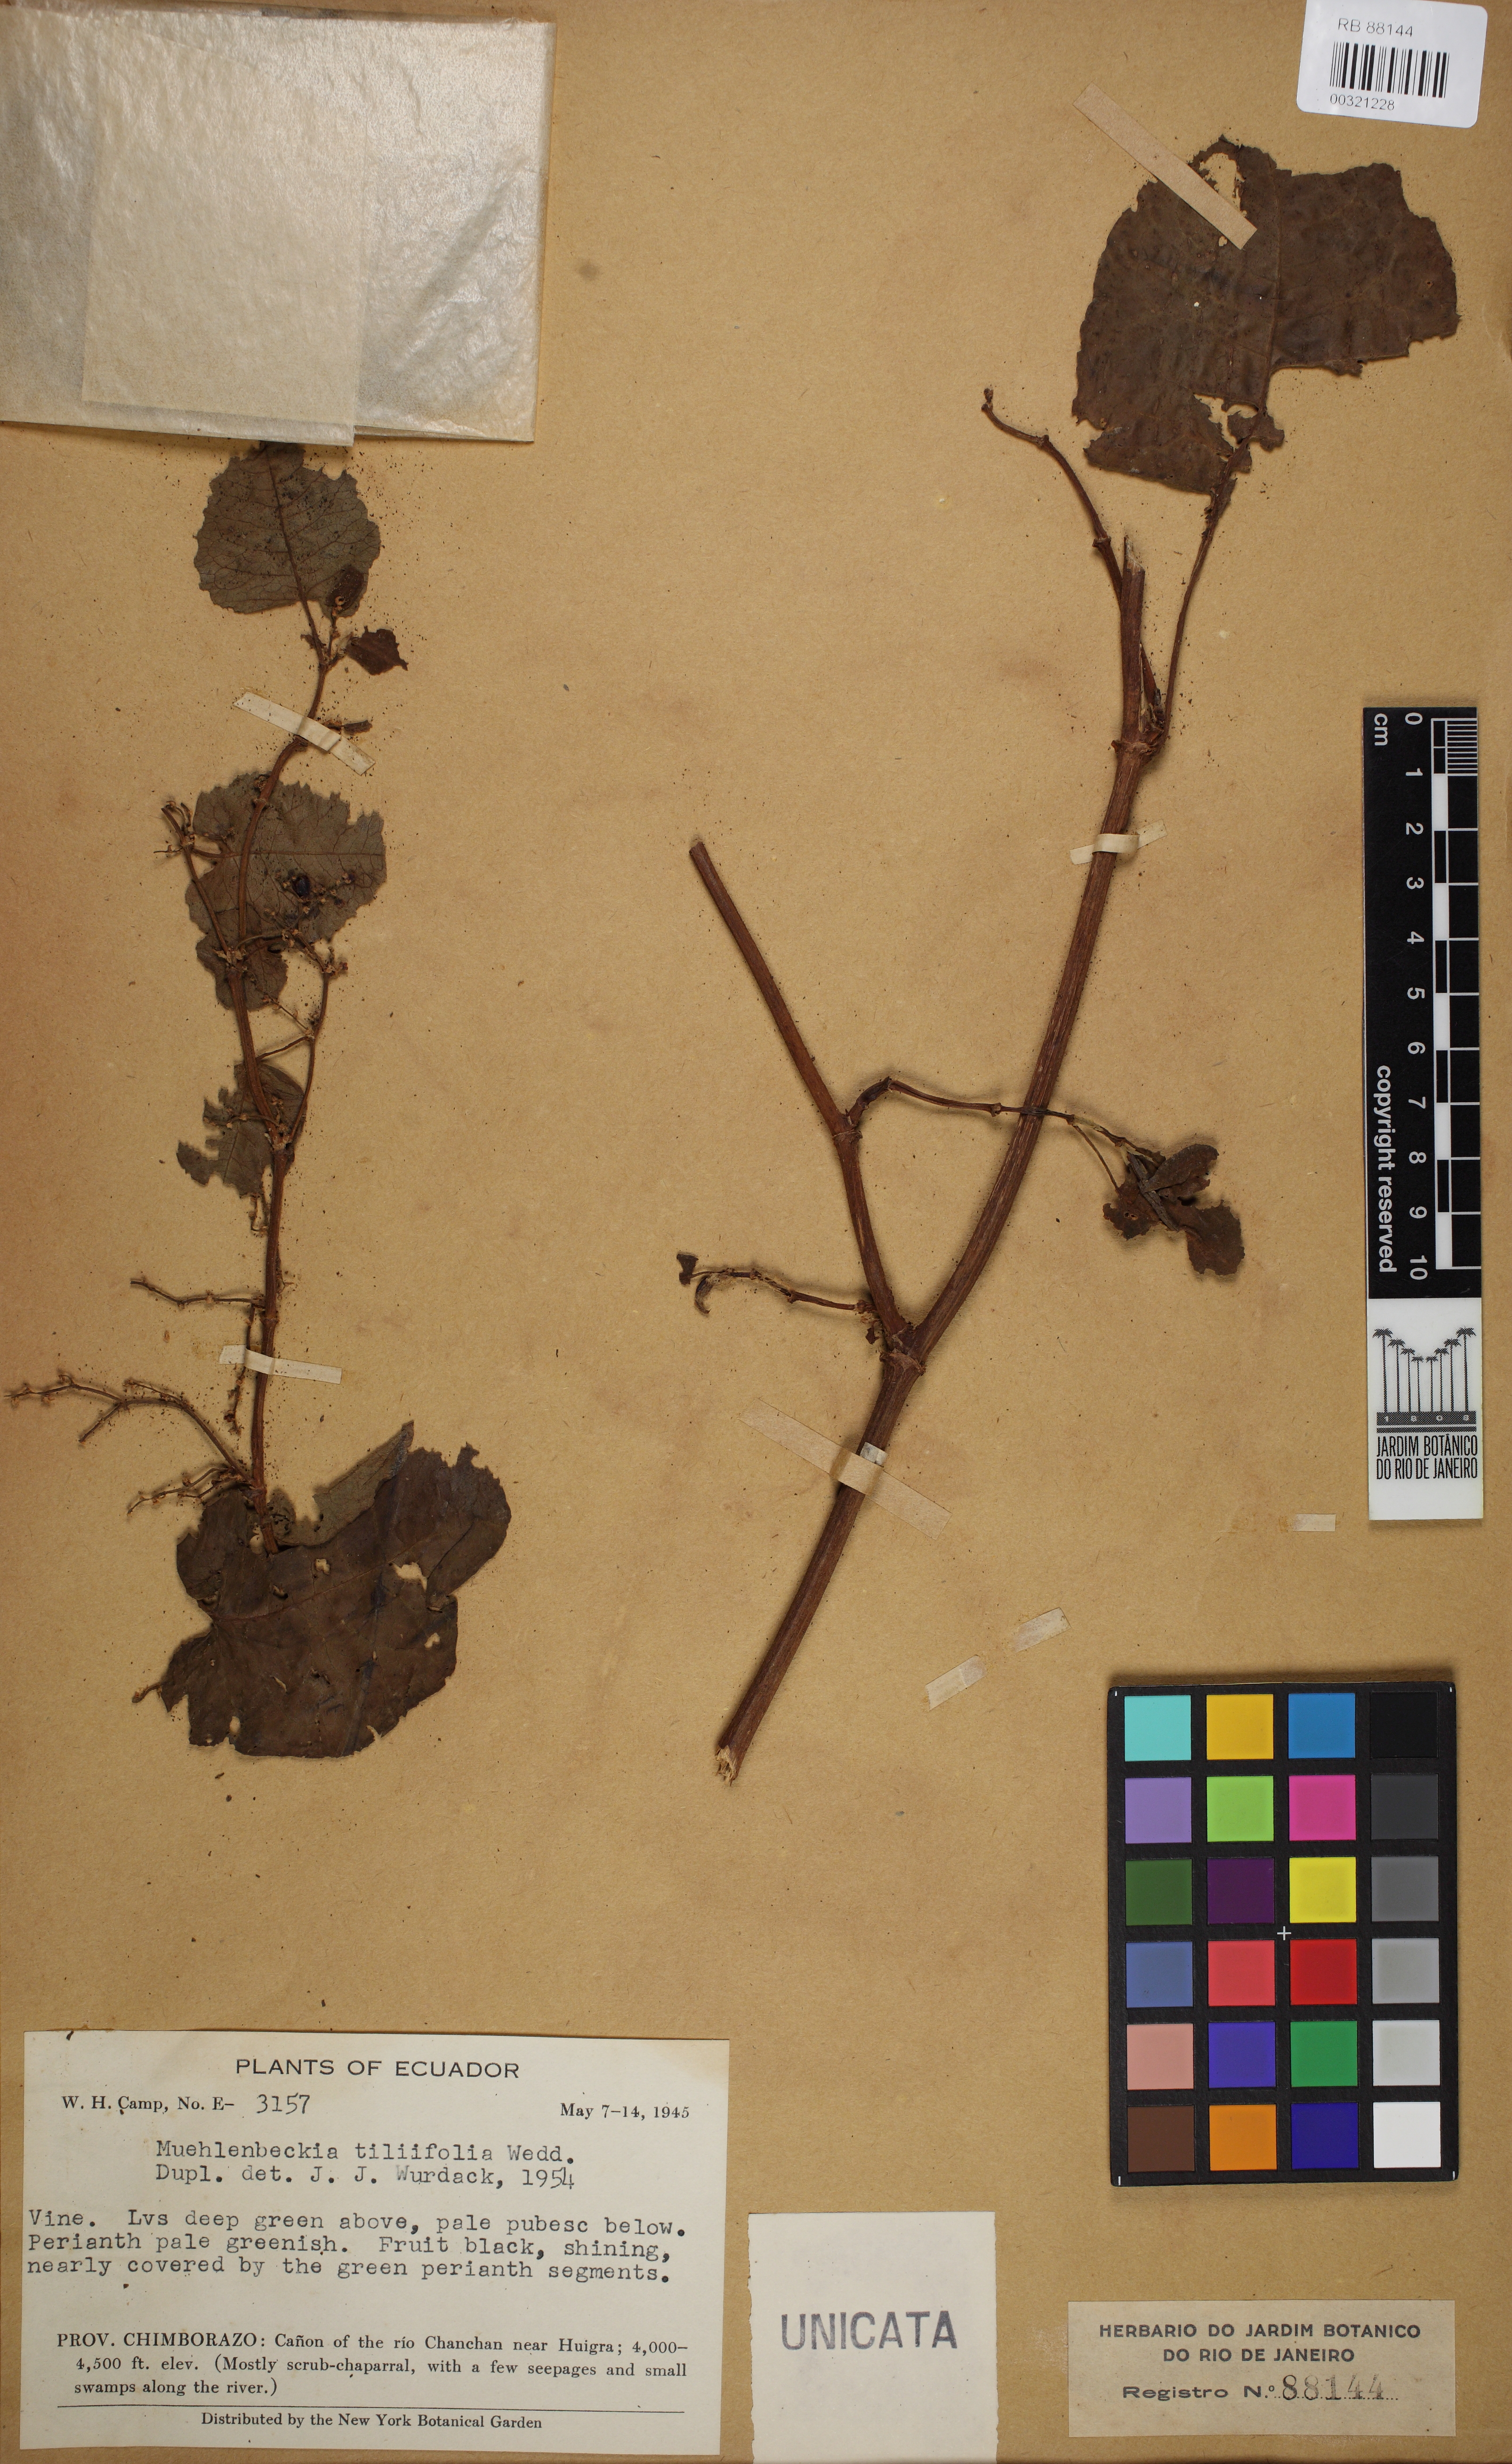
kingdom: Plantae
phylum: Tracheophyta
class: Magnoliopsida
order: Caryophyllales
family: Polygonaceae
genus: Muehlenbeckia
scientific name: Muehlenbeckia tiliifolia
